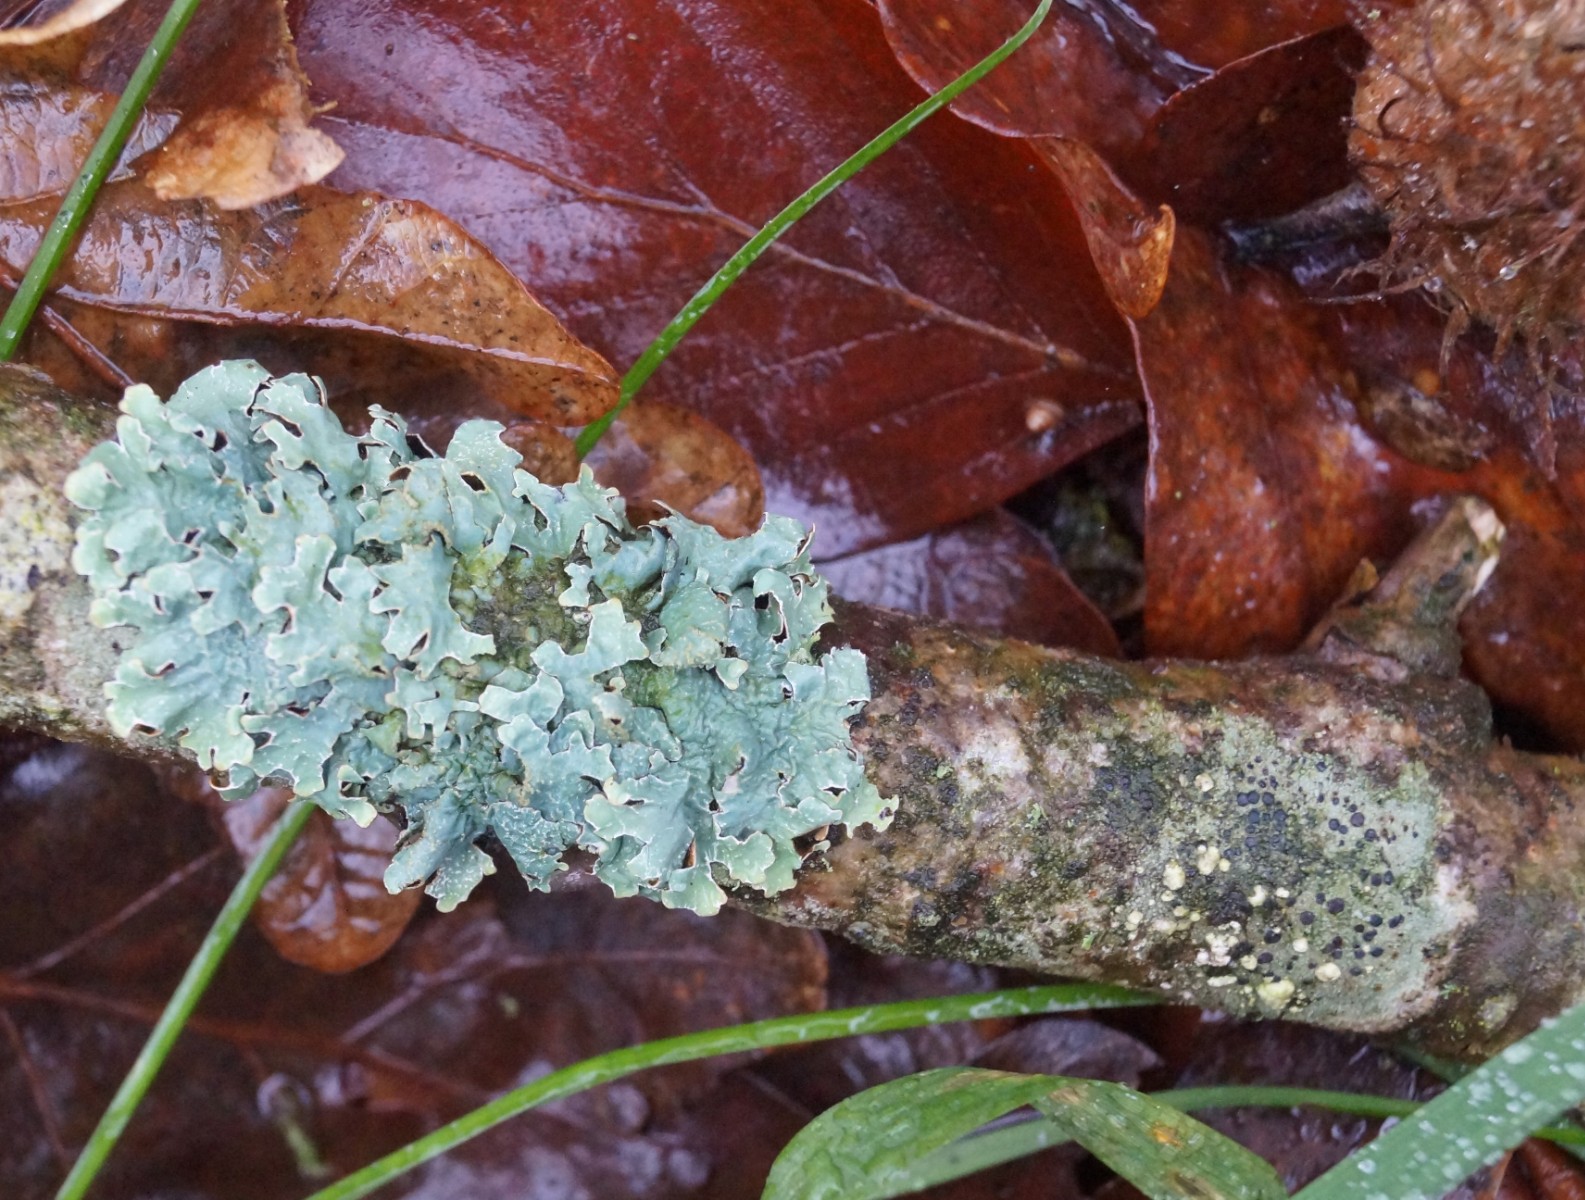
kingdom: Fungi
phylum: Ascomycota
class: Lecanoromycetes
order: Lecanorales
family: Parmeliaceae
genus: Parmelia
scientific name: Parmelia sulcata
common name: rynket skållav
